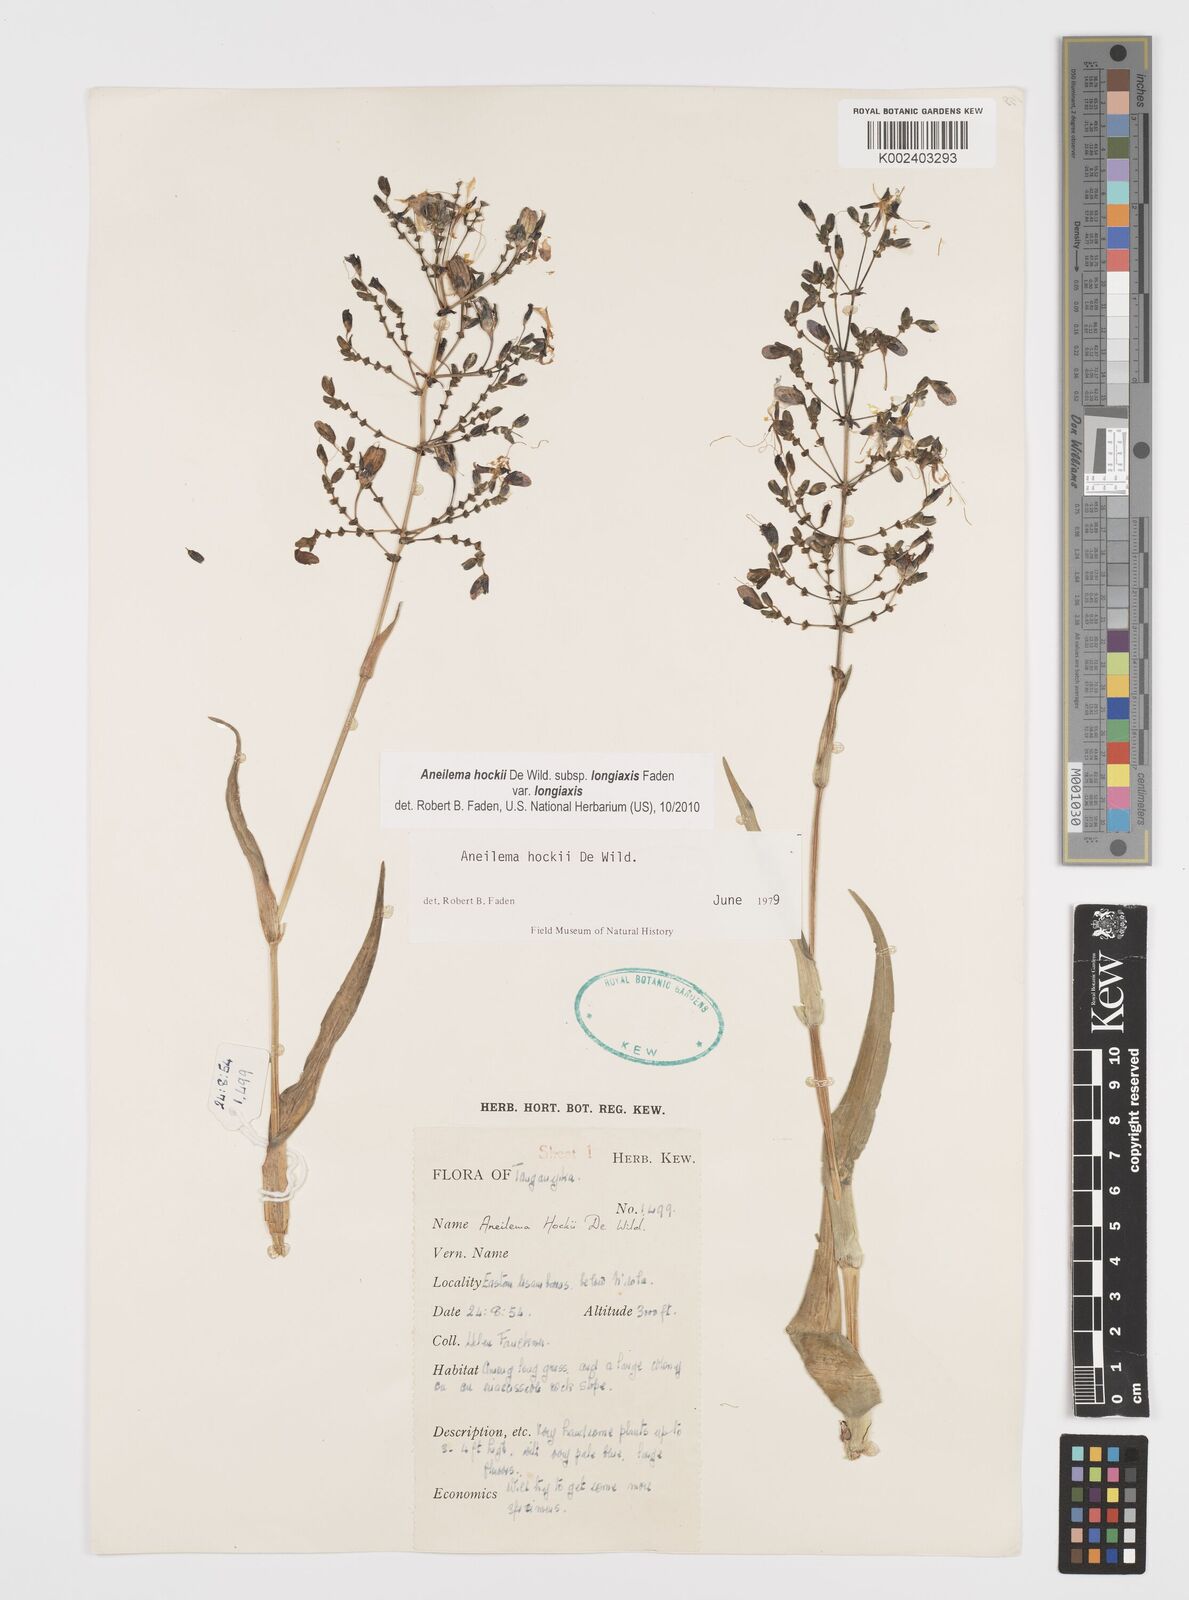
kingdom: Plantae
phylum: Tracheophyta
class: Liliopsida
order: Commelinales
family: Commelinaceae
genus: Aneilema
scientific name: Aneilema hockii
